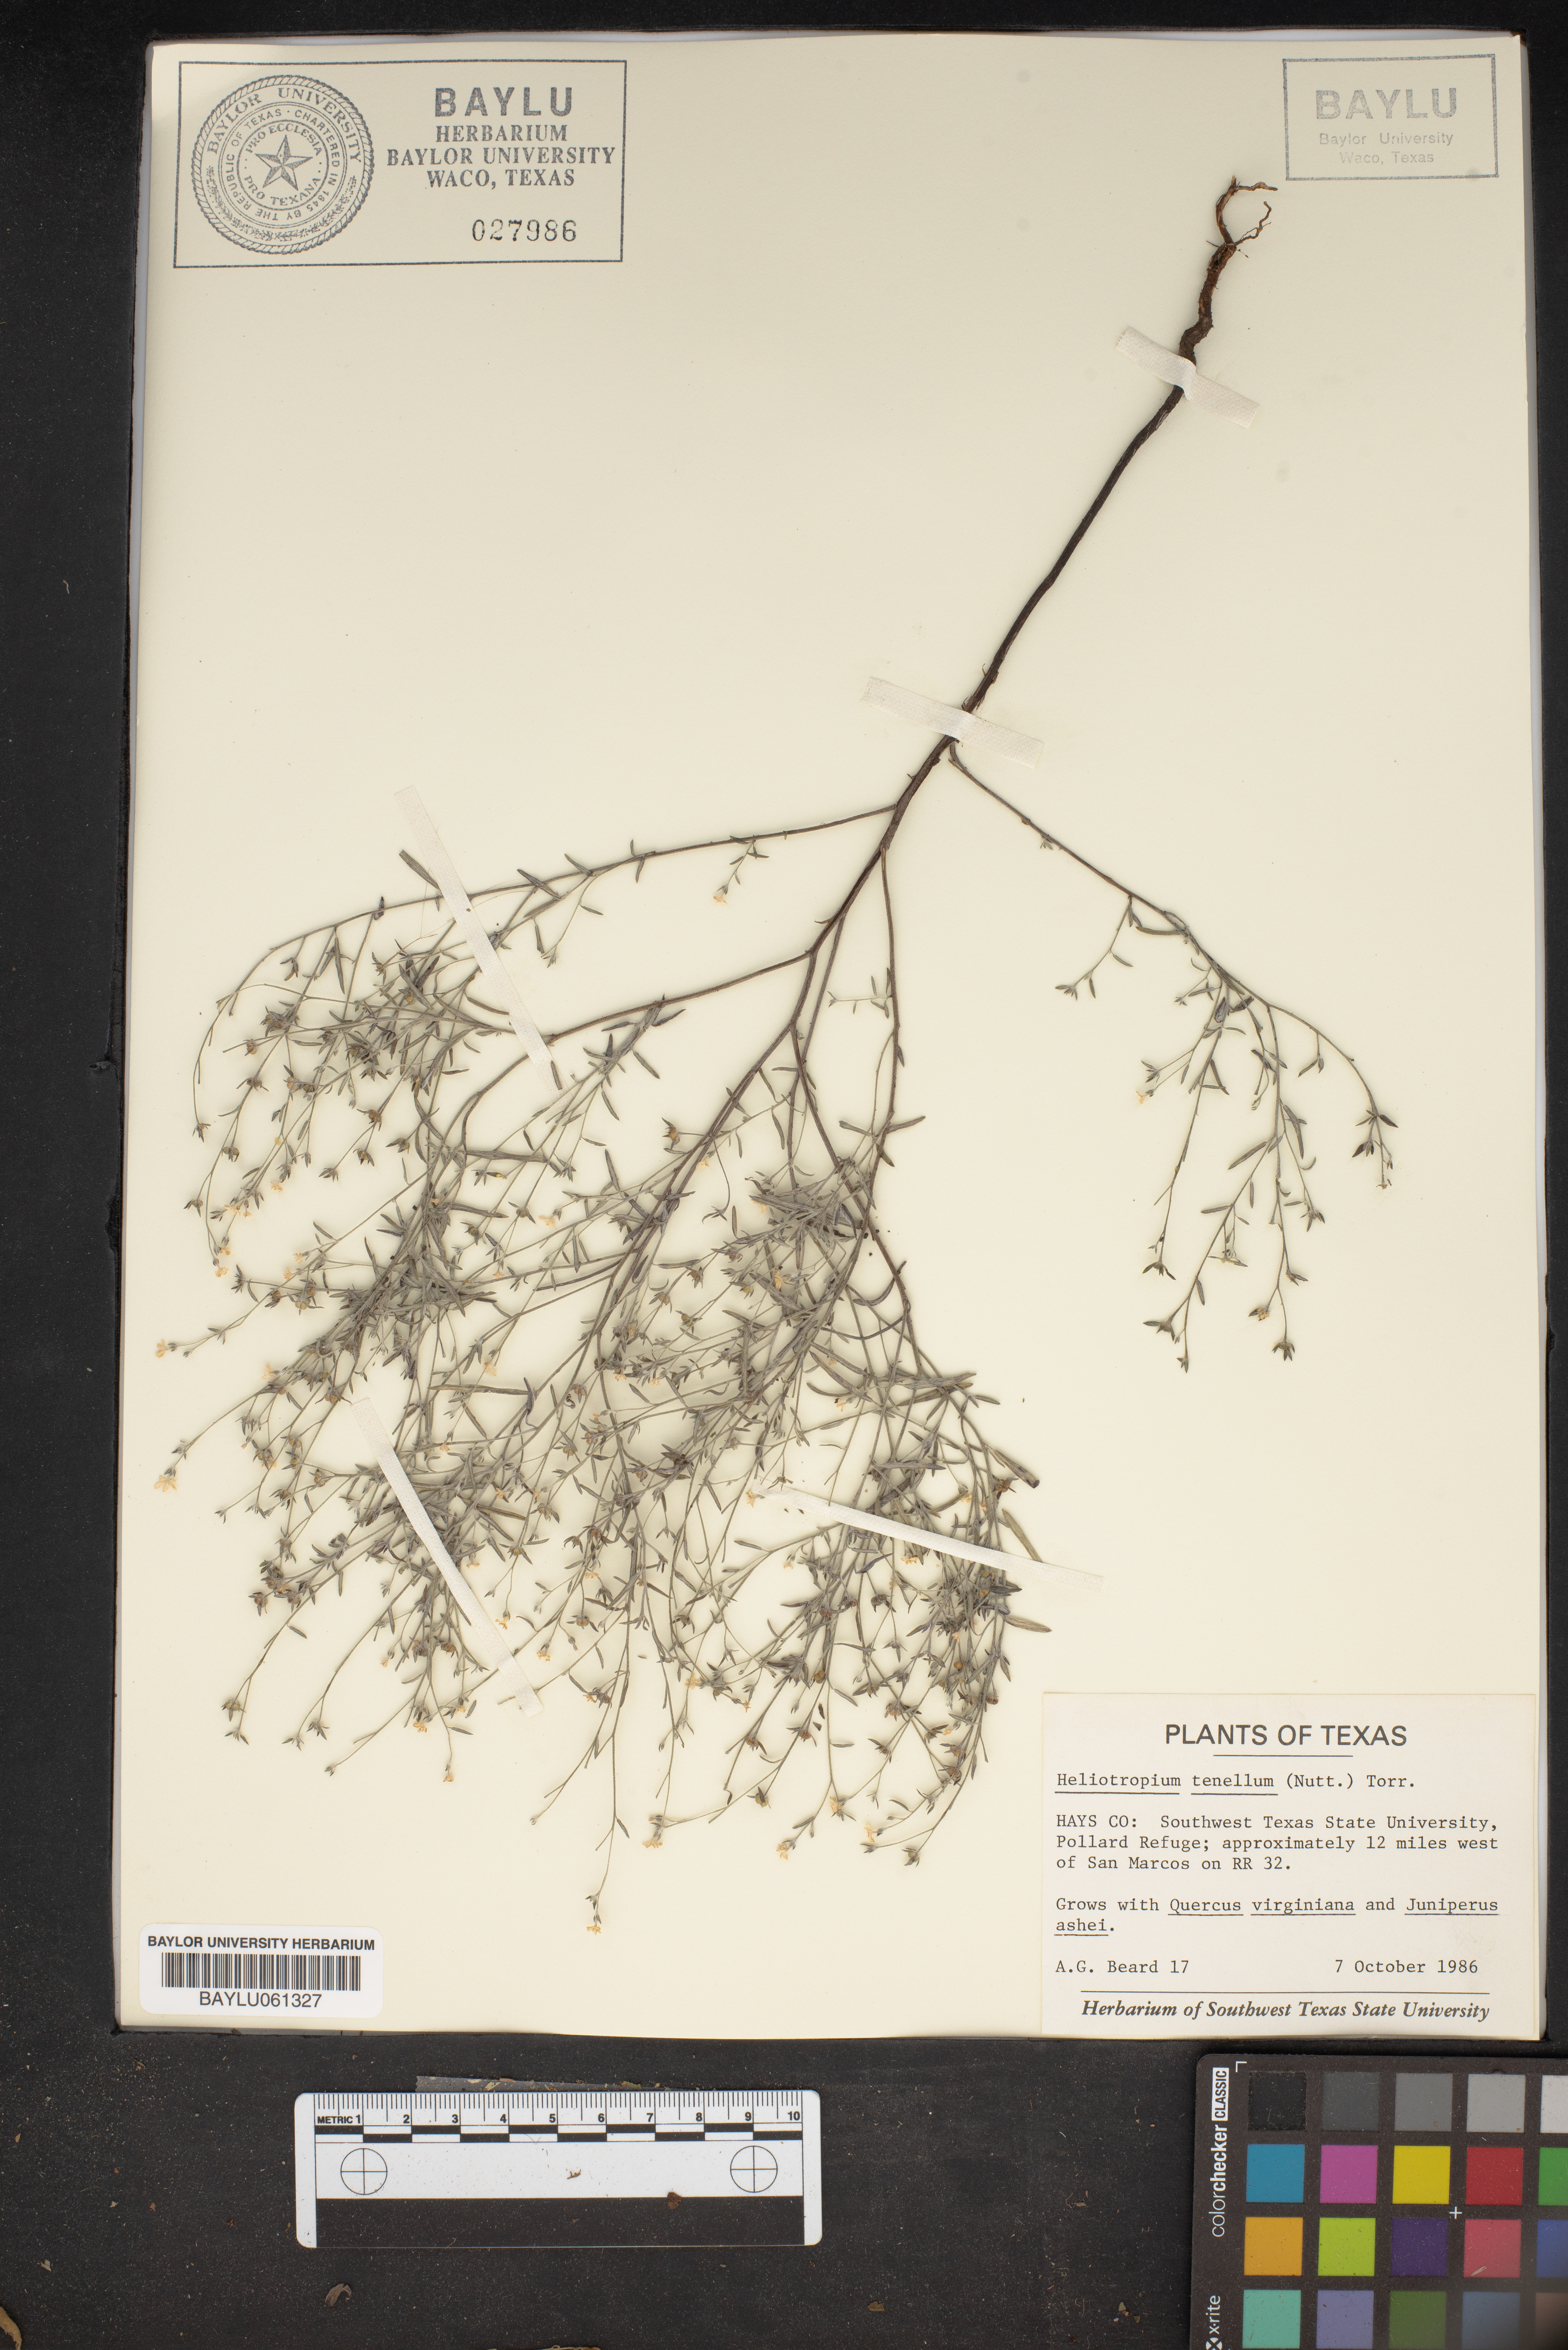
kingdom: Plantae
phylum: Tracheophyta
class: Magnoliopsida
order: Boraginales
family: Heliotropiaceae
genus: Euploca
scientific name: Euploca tenella
